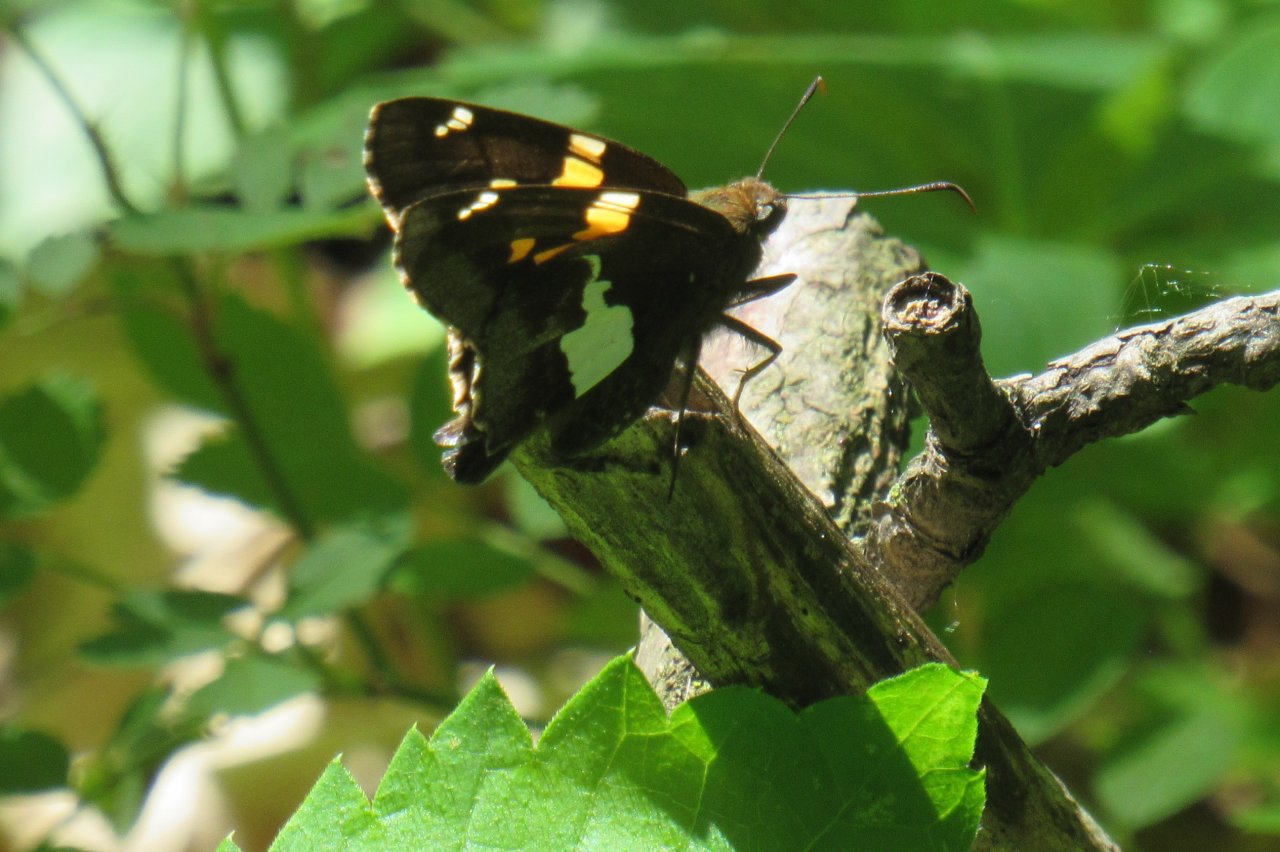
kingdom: Animalia
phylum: Arthropoda
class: Insecta
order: Lepidoptera
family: Hesperiidae
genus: Epargyreus
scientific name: Epargyreus clarus
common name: Silver-spotted Skipper
